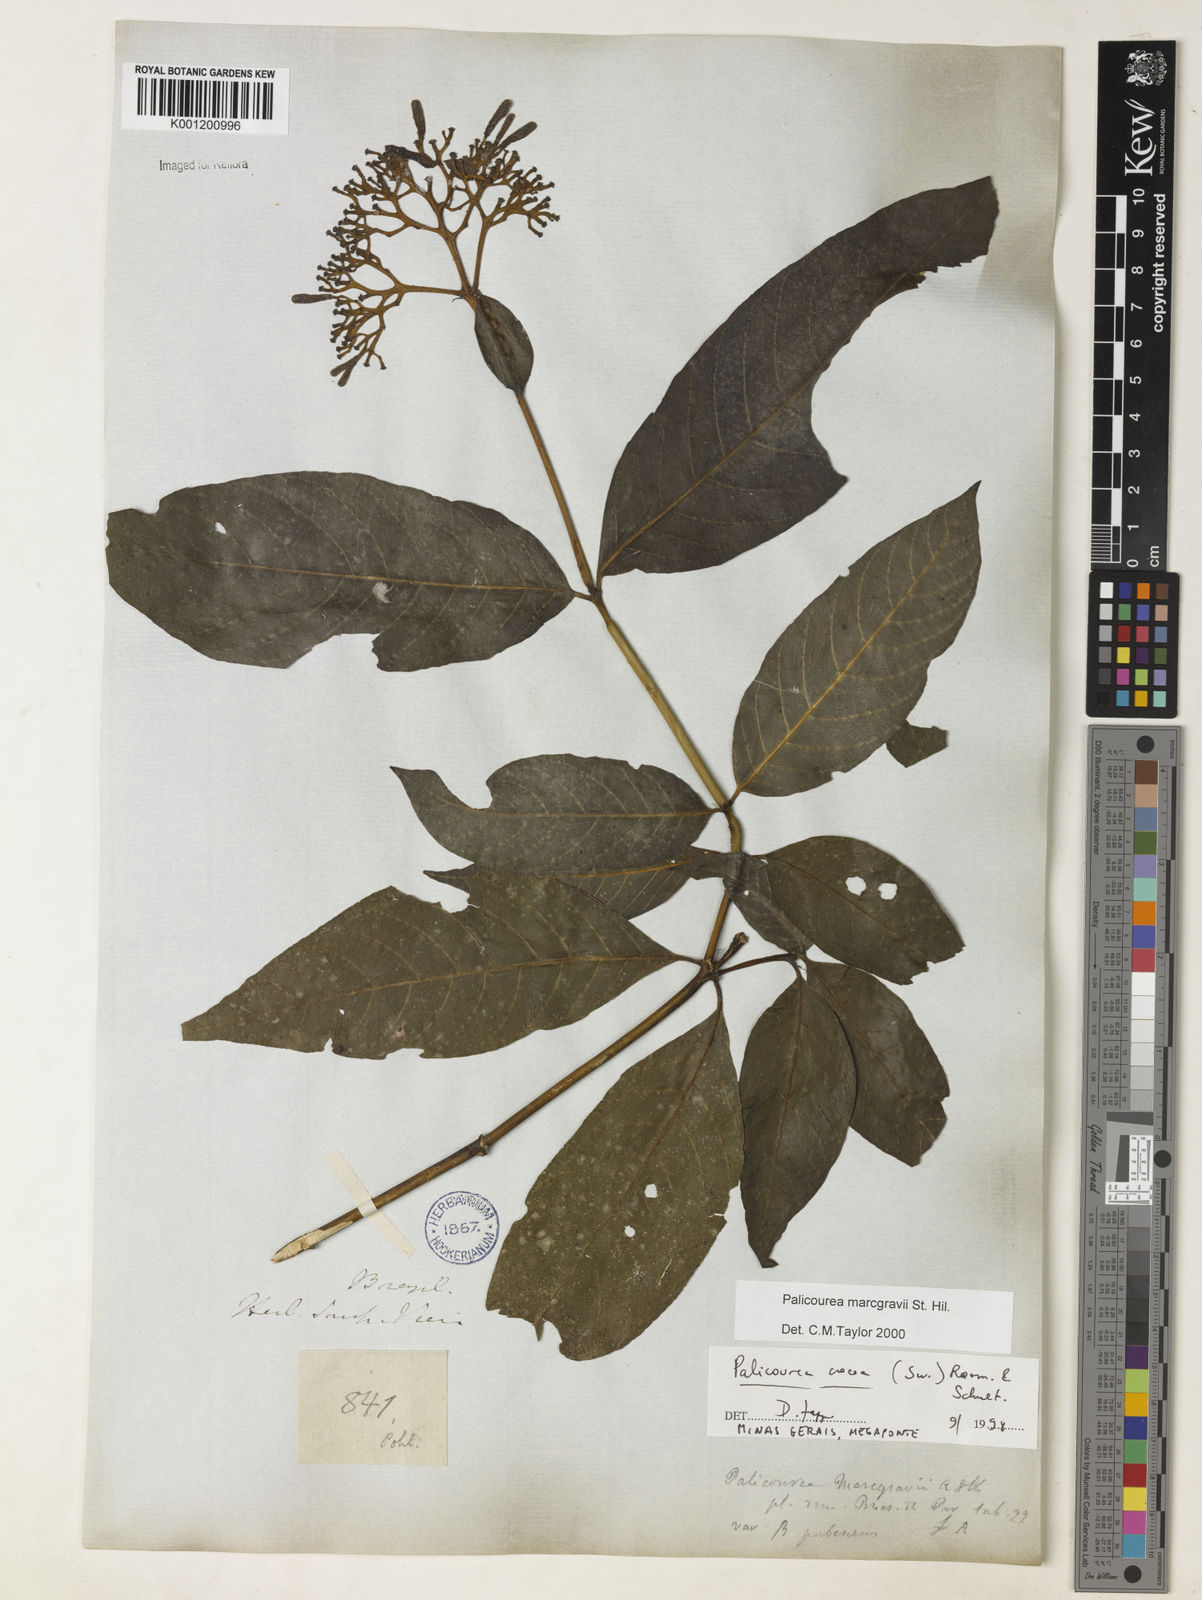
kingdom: Plantae
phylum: Tracheophyta
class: Magnoliopsida
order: Gentianales
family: Rubiaceae
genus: Palicourea
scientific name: Palicourea marcgravii
